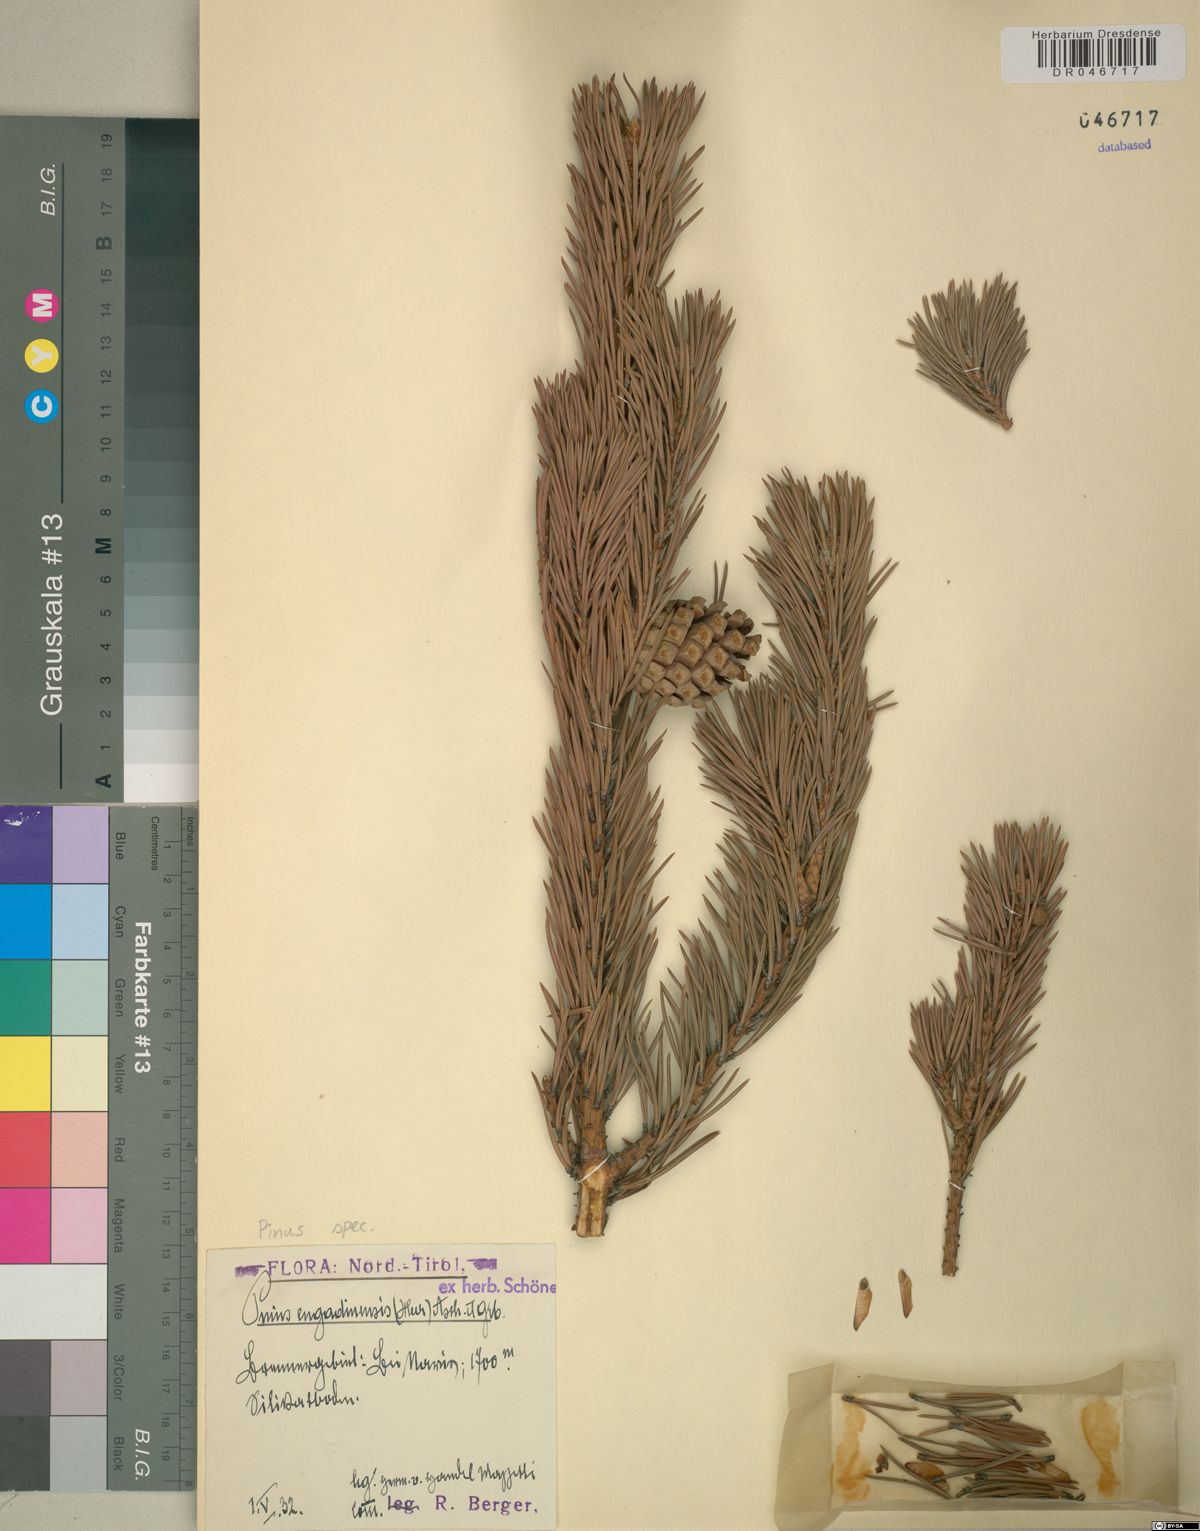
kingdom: Plantae
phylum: Tracheophyta
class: Pinopsida
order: Pinales
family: Pinaceae
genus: Pinus
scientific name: Pinus
